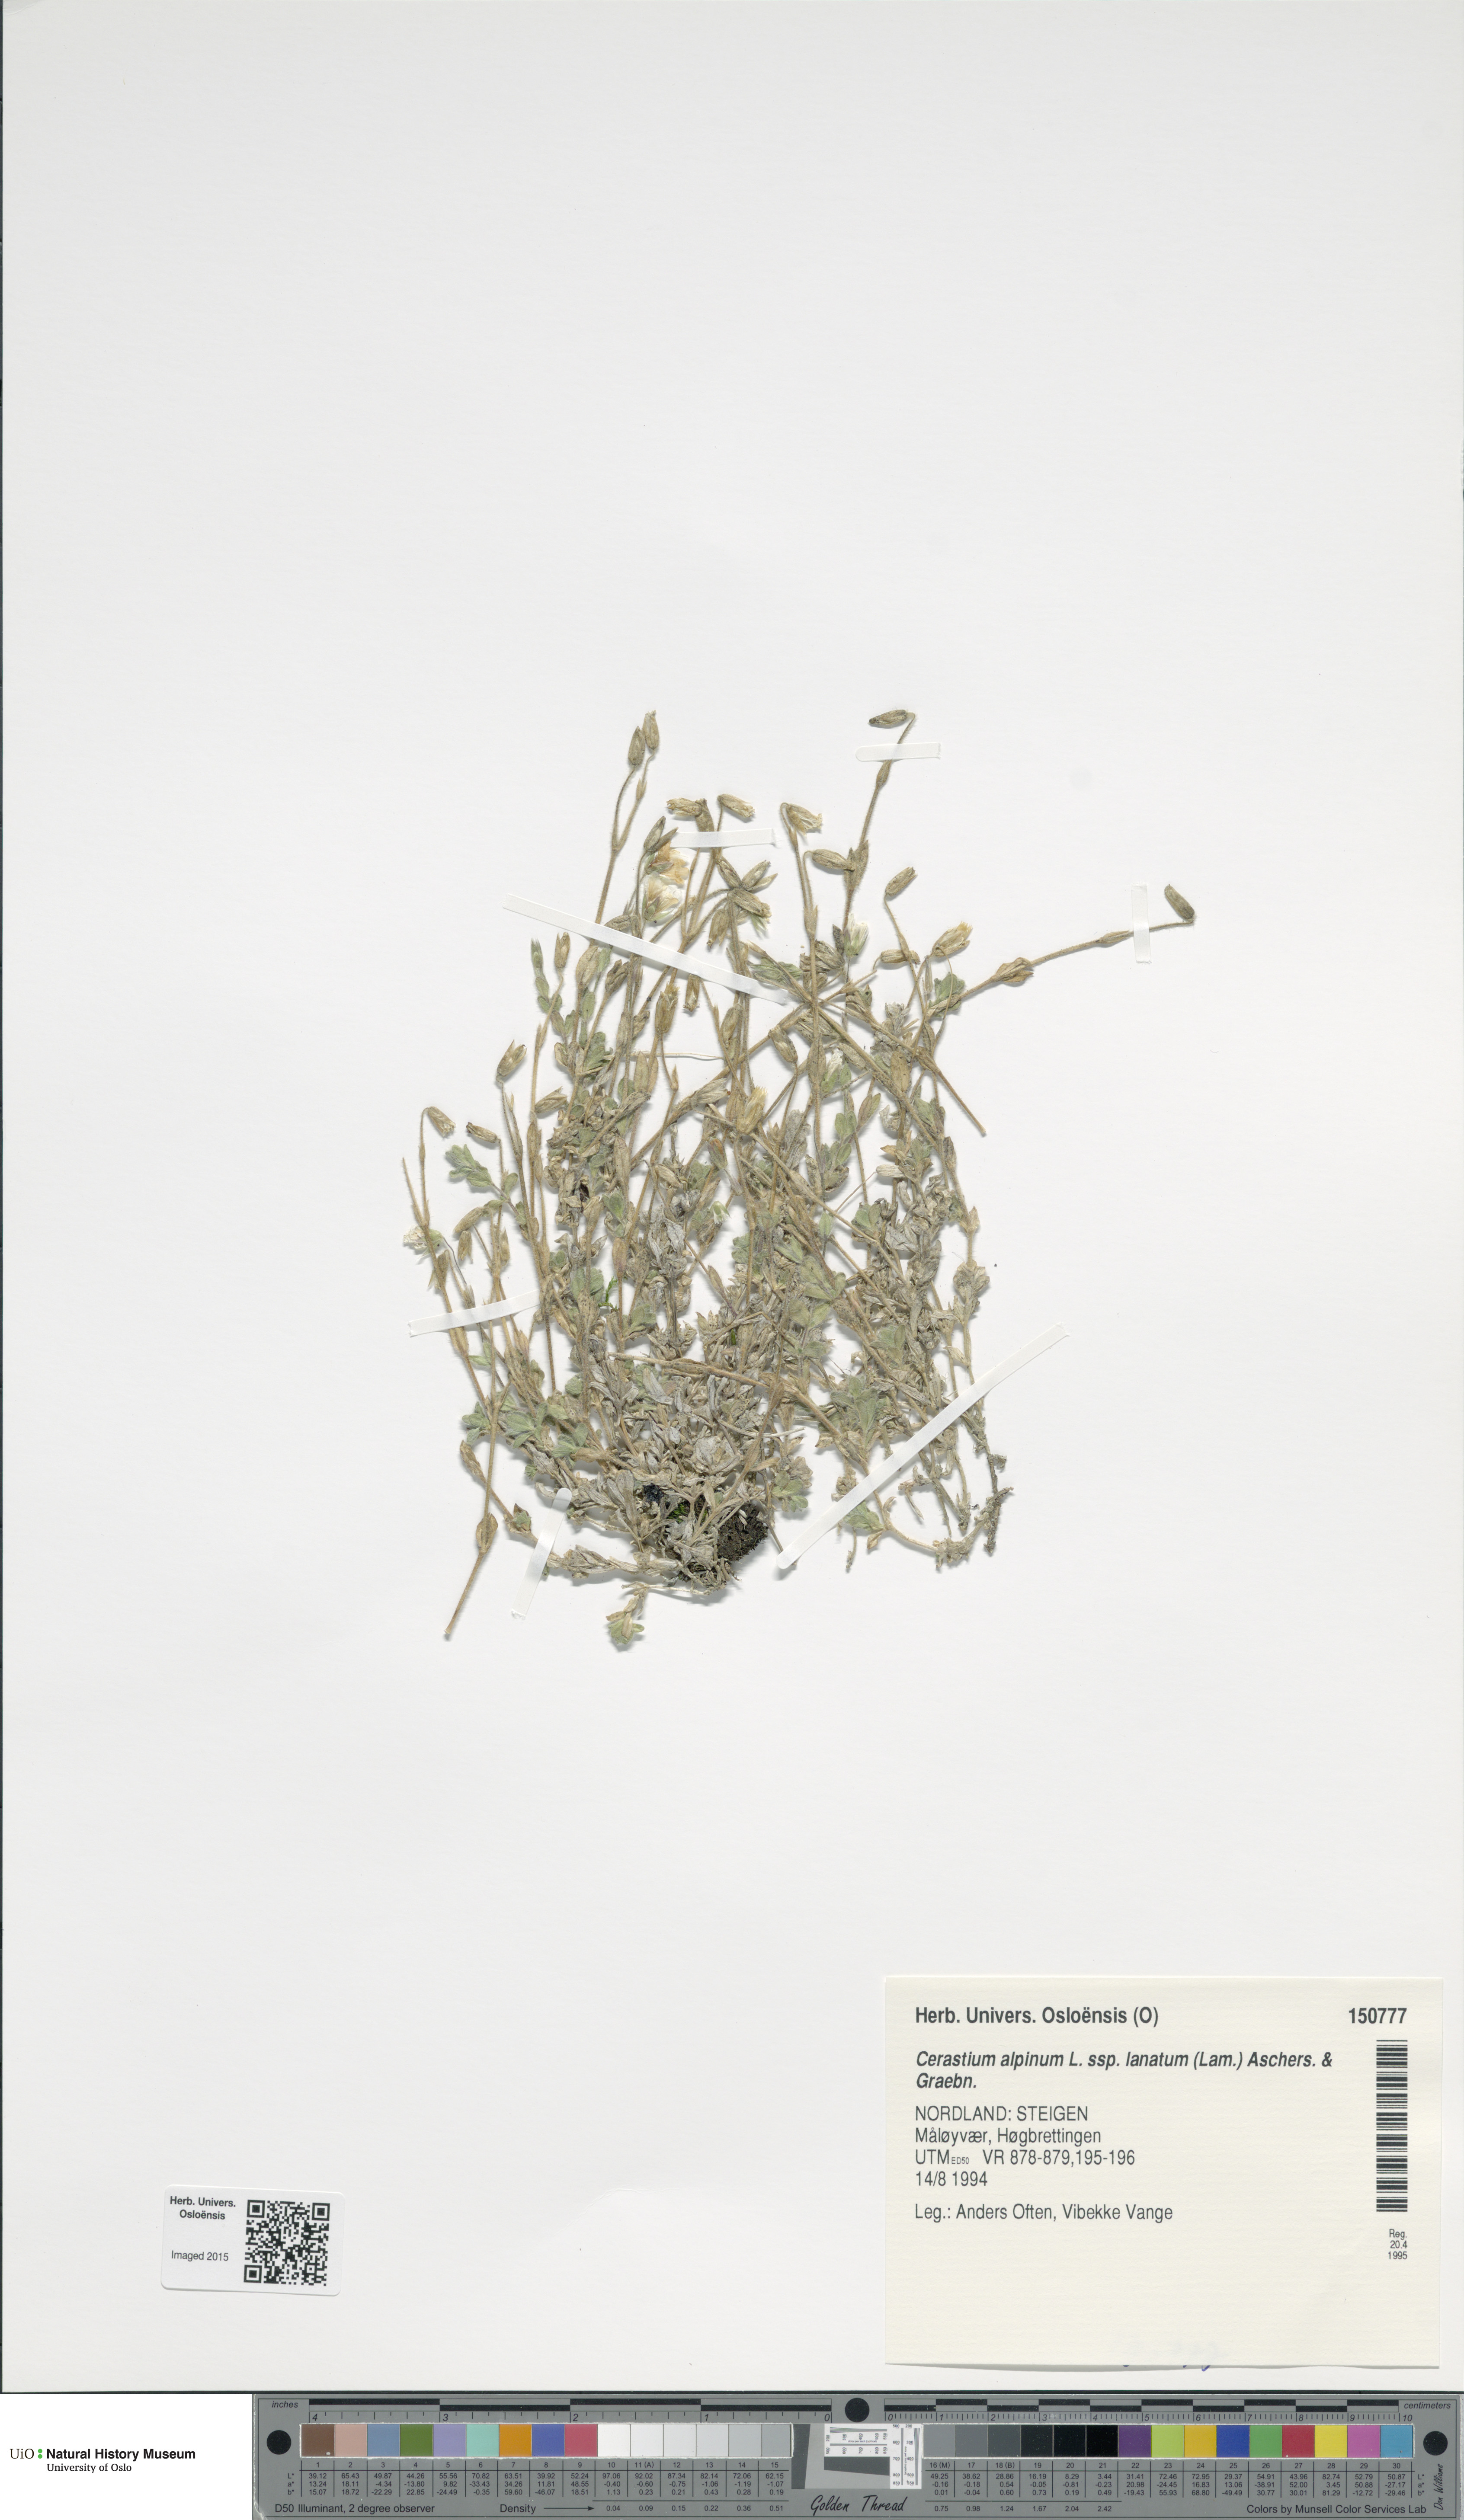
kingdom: Plantae
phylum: Tracheophyta
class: Magnoliopsida
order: Caryophyllales
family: Caryophyllaceae
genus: Cerastium
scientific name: Cerastium alpinum
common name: Alpine mouse-ear
